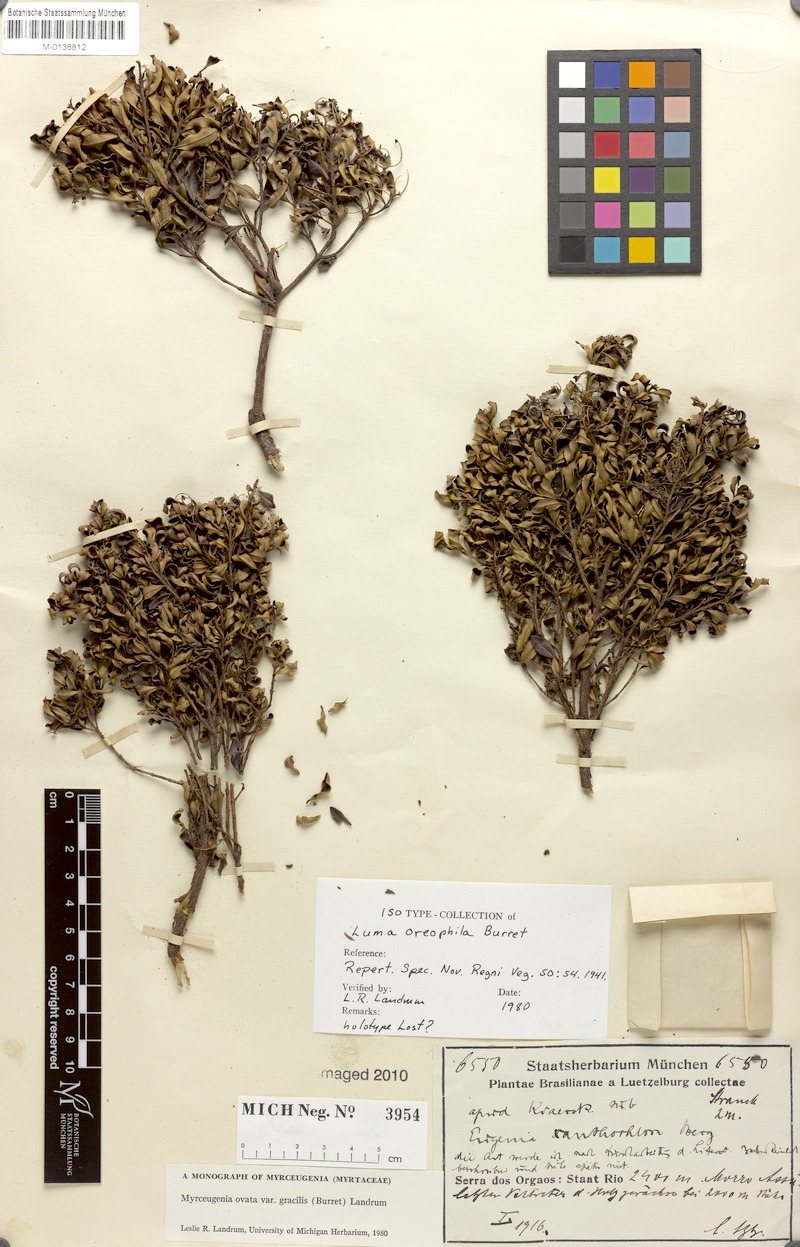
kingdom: Plantae
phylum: Tracheophyta
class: Magnoliopsida
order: Myrtales
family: Myrtaceae
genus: Myrceugenia
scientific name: Myrceugenia ovata
